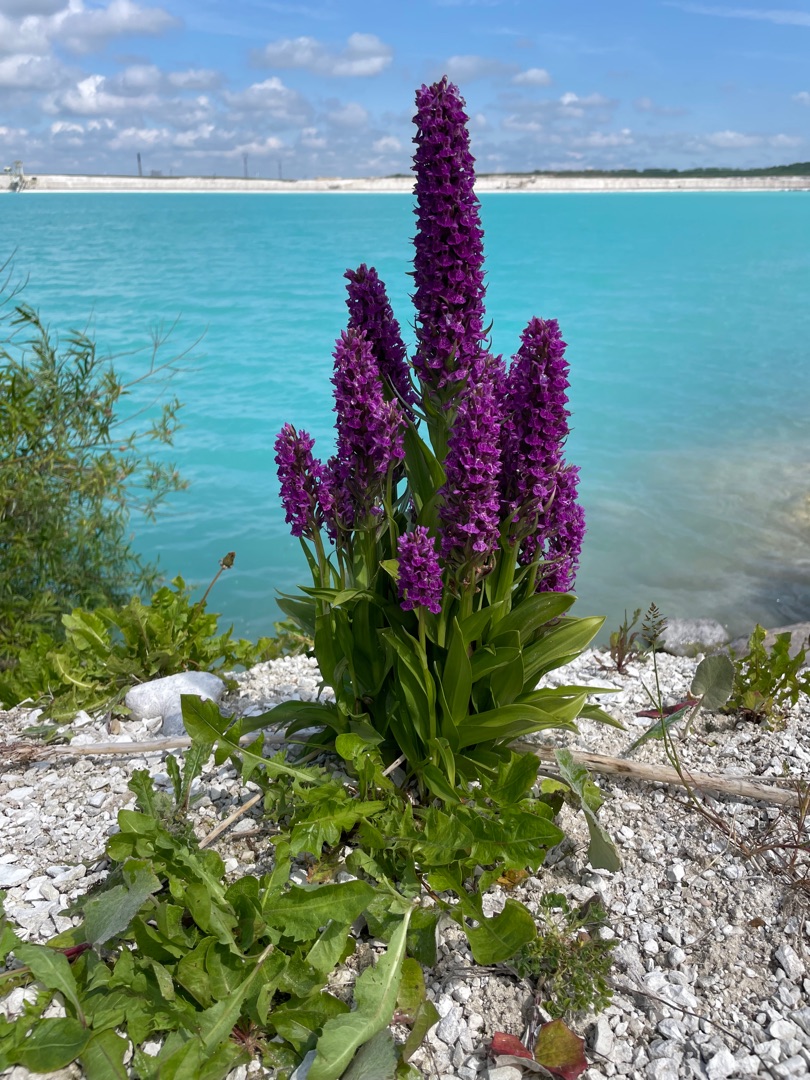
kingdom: Plantae
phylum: Tracheophyta
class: Liliopsida
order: Asparagales
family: Orchidaceae
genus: Dactylorhiza
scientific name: Dactylorhiza majalis
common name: Purpur-gøgeurt
